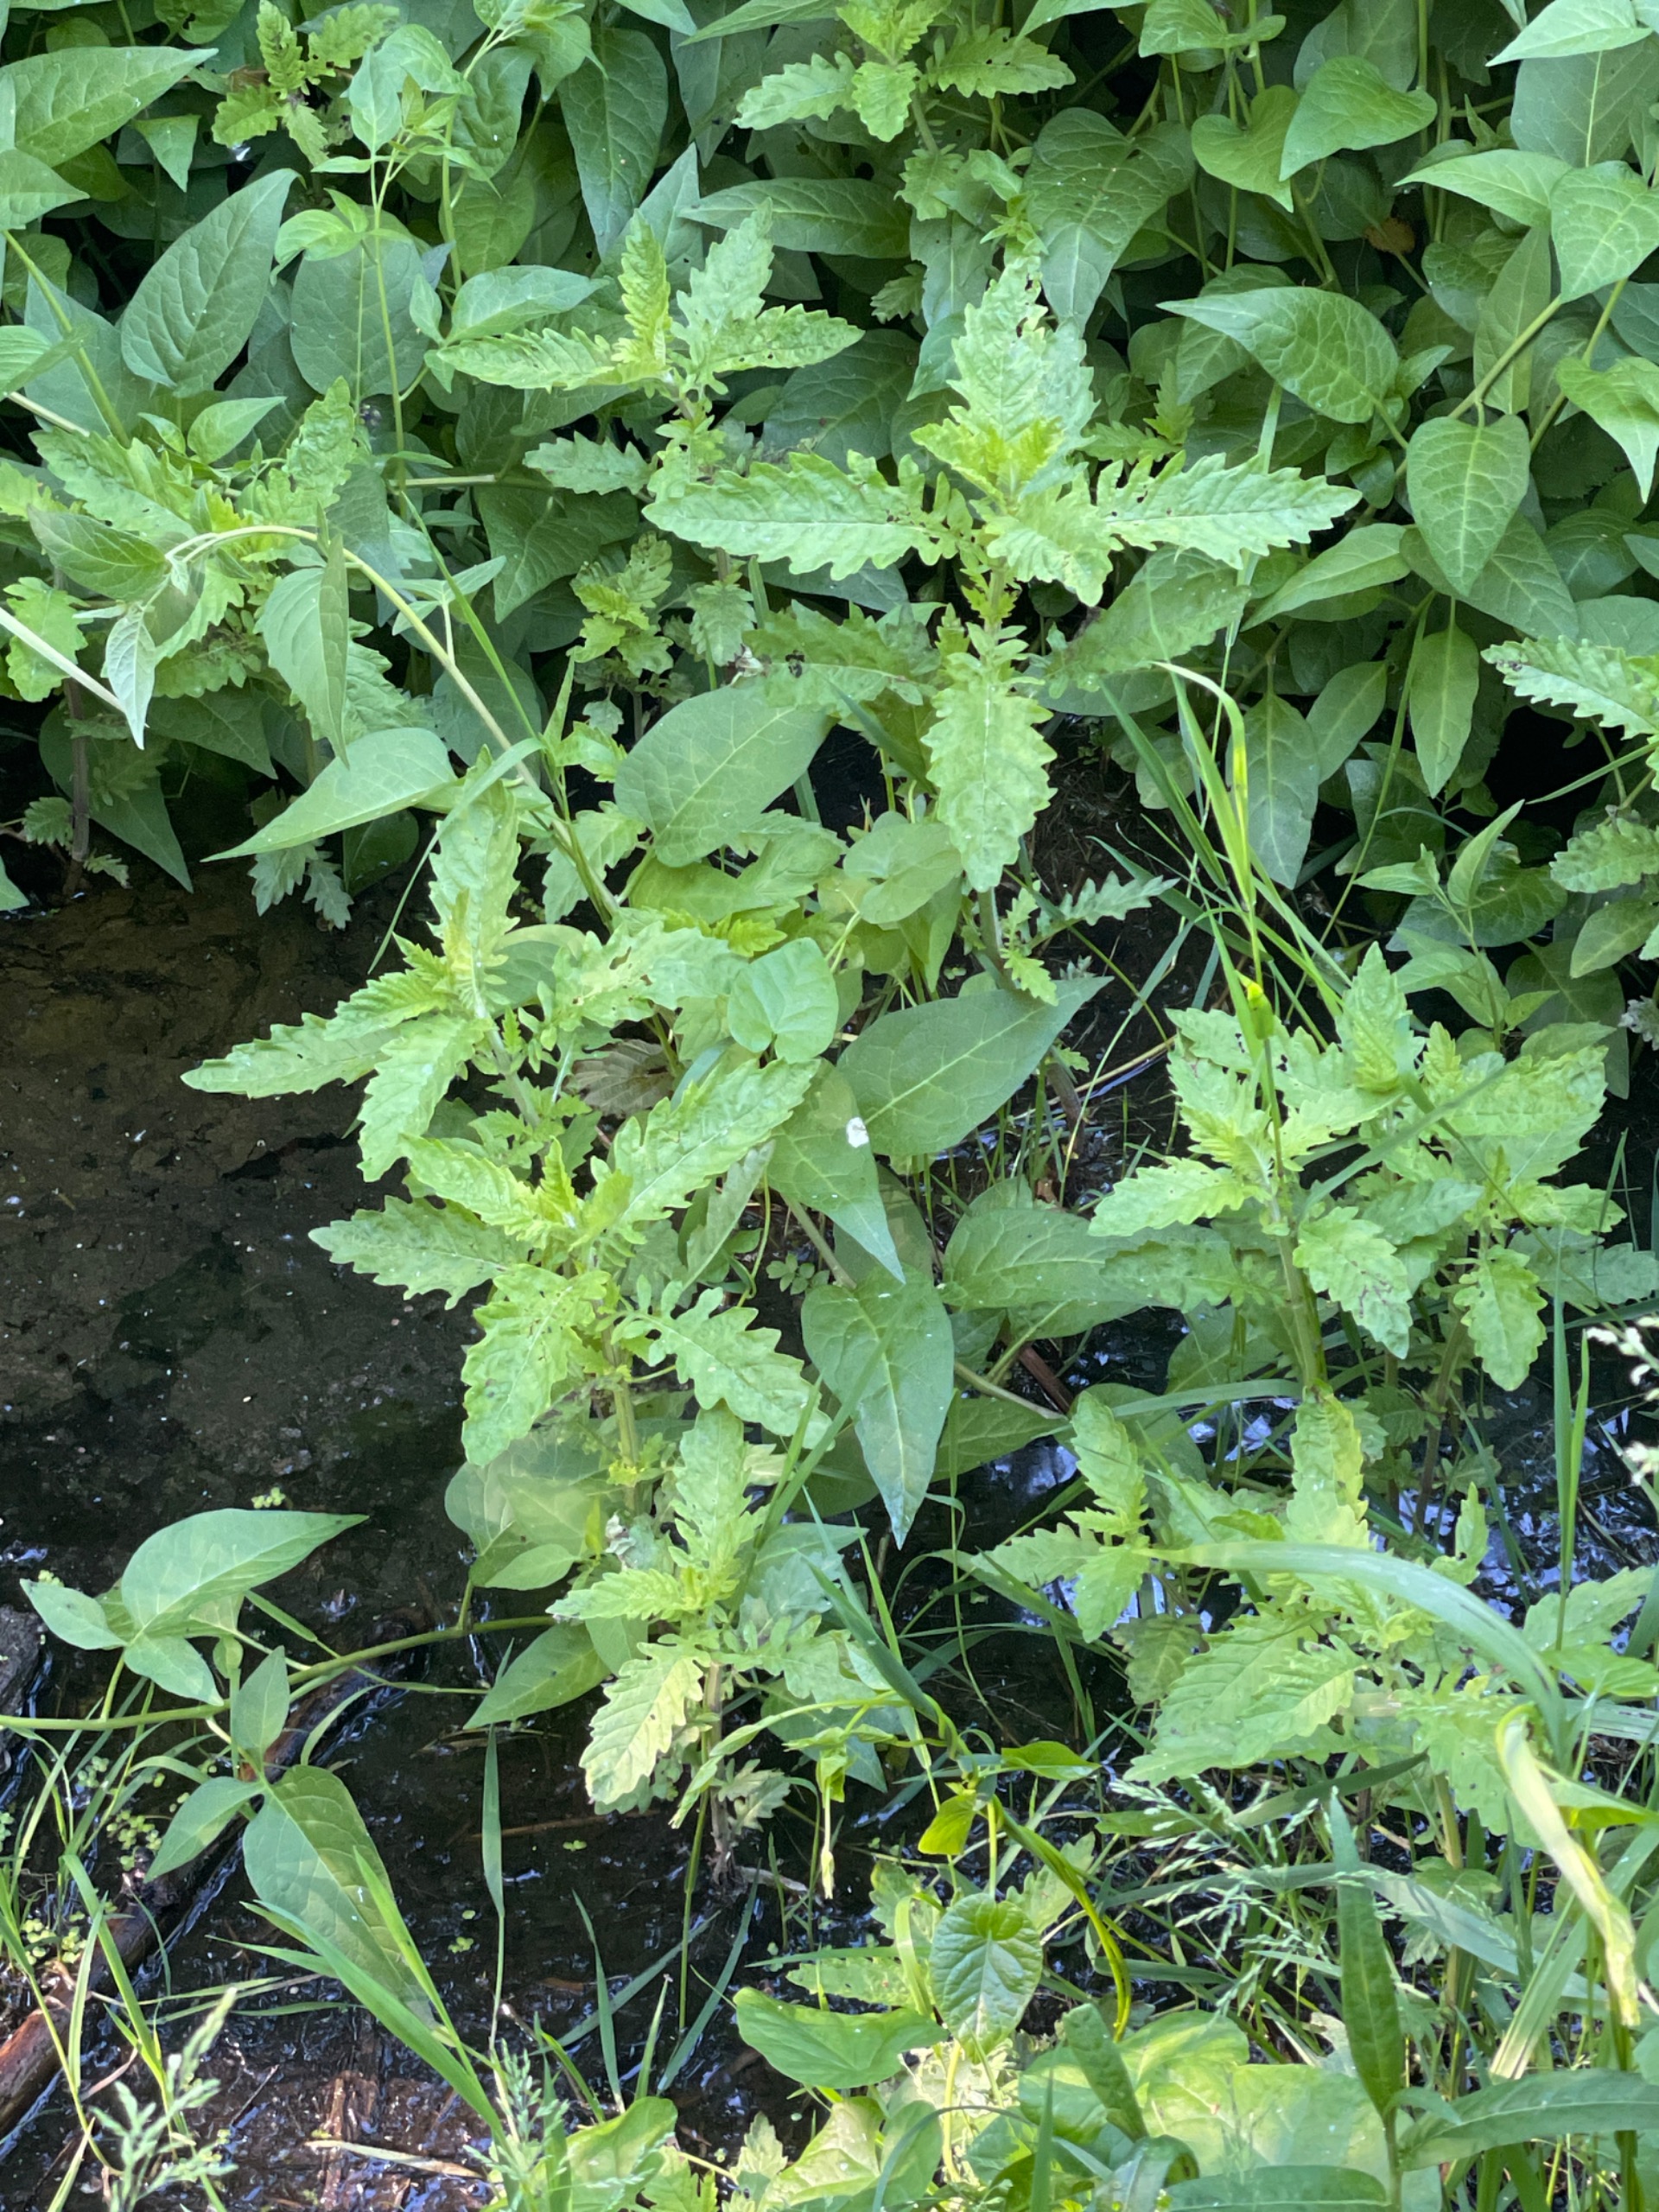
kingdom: Plantae
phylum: Tracheophyta
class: Magnoliopsida
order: Lamiales
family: Lamiaceae
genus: Lycopus
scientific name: Lycopus europaeus
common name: Sværtevæld
